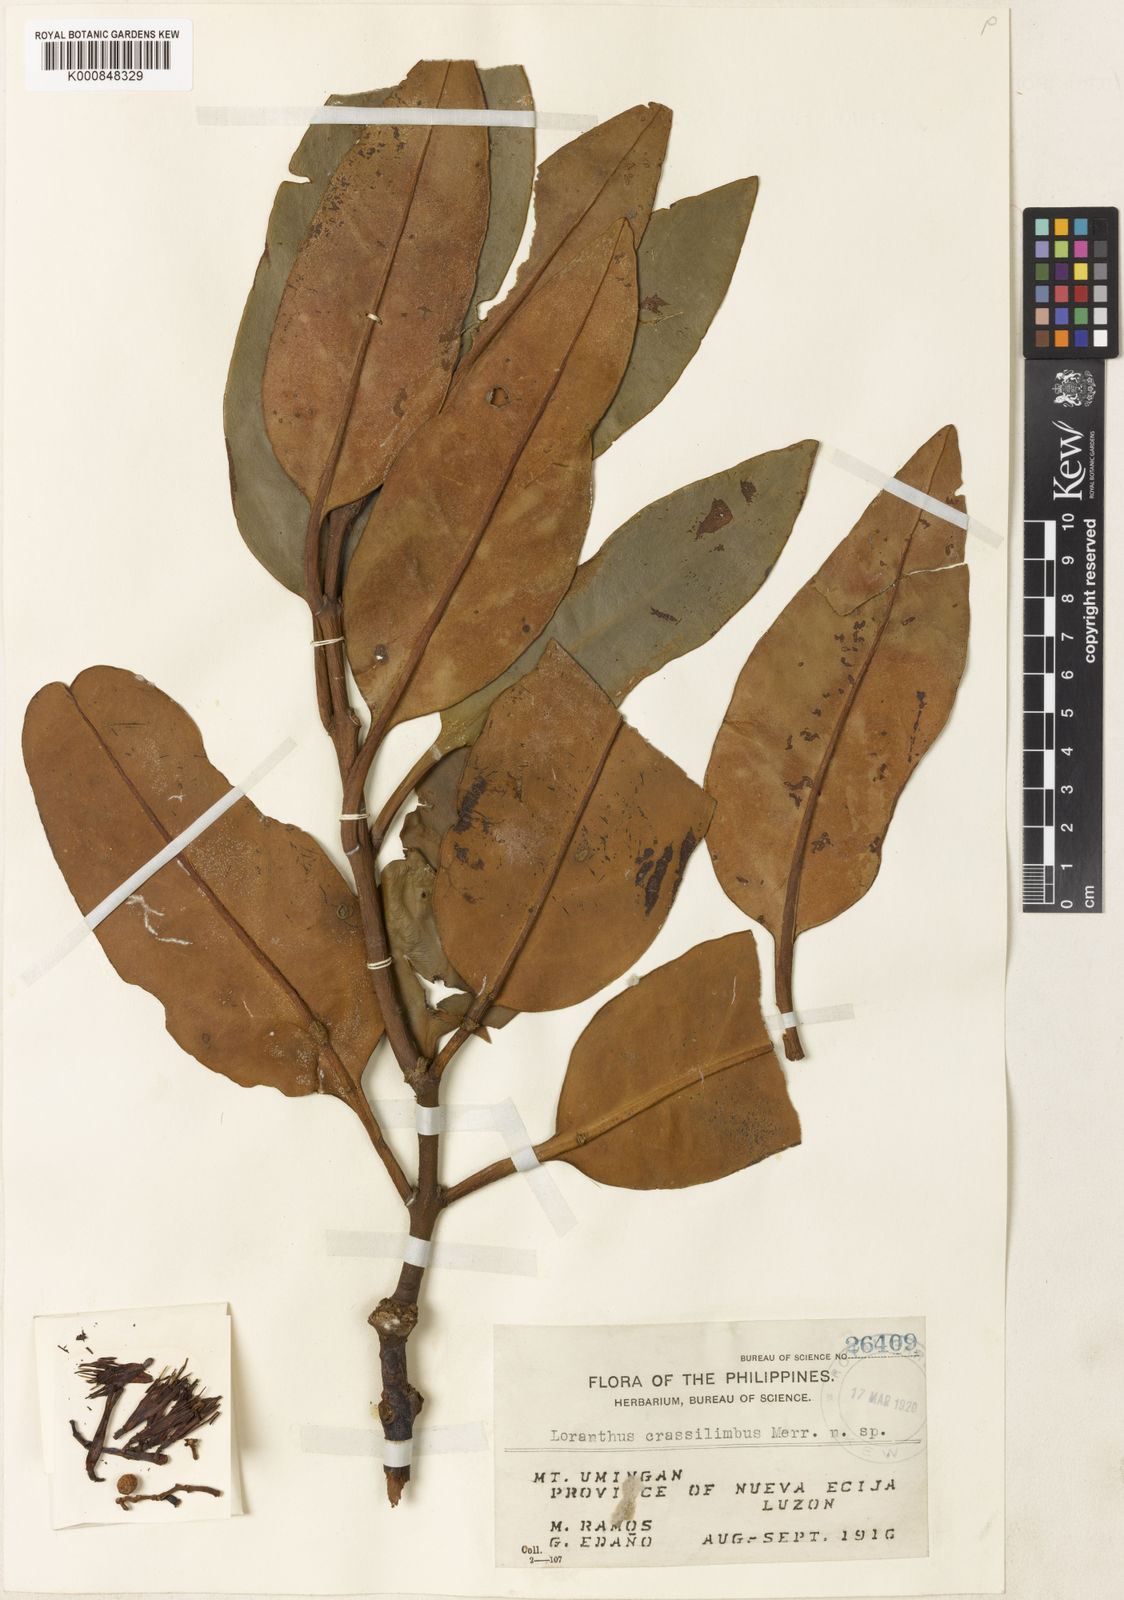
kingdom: Plantae
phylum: Tracheophyta
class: Magnoliopsida
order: Santalales
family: Loranthaceae
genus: Decaisnina
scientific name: Decaisnina crassilimba
